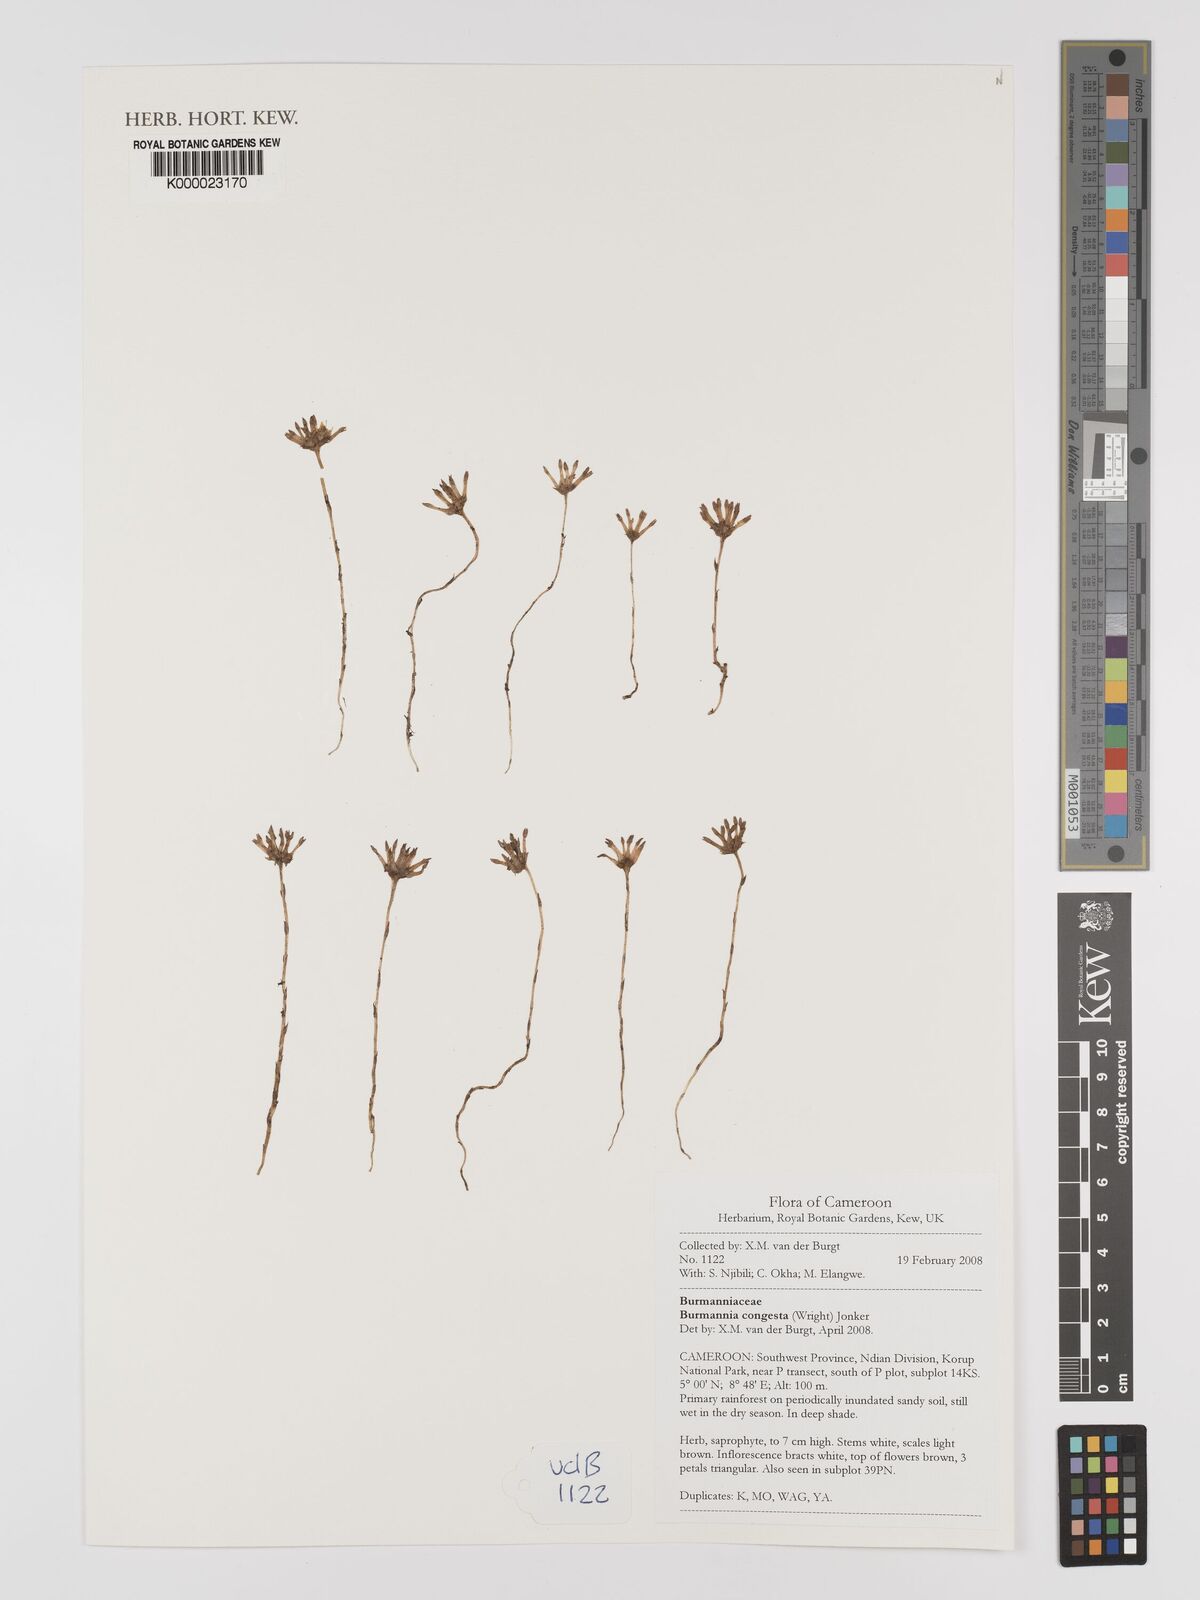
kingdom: Plantae
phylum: Tracheophyta
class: Liliopsida
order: Dioscoreales
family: Burmanniaceae
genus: Campylosiphon
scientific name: Campylosiphon congestus
